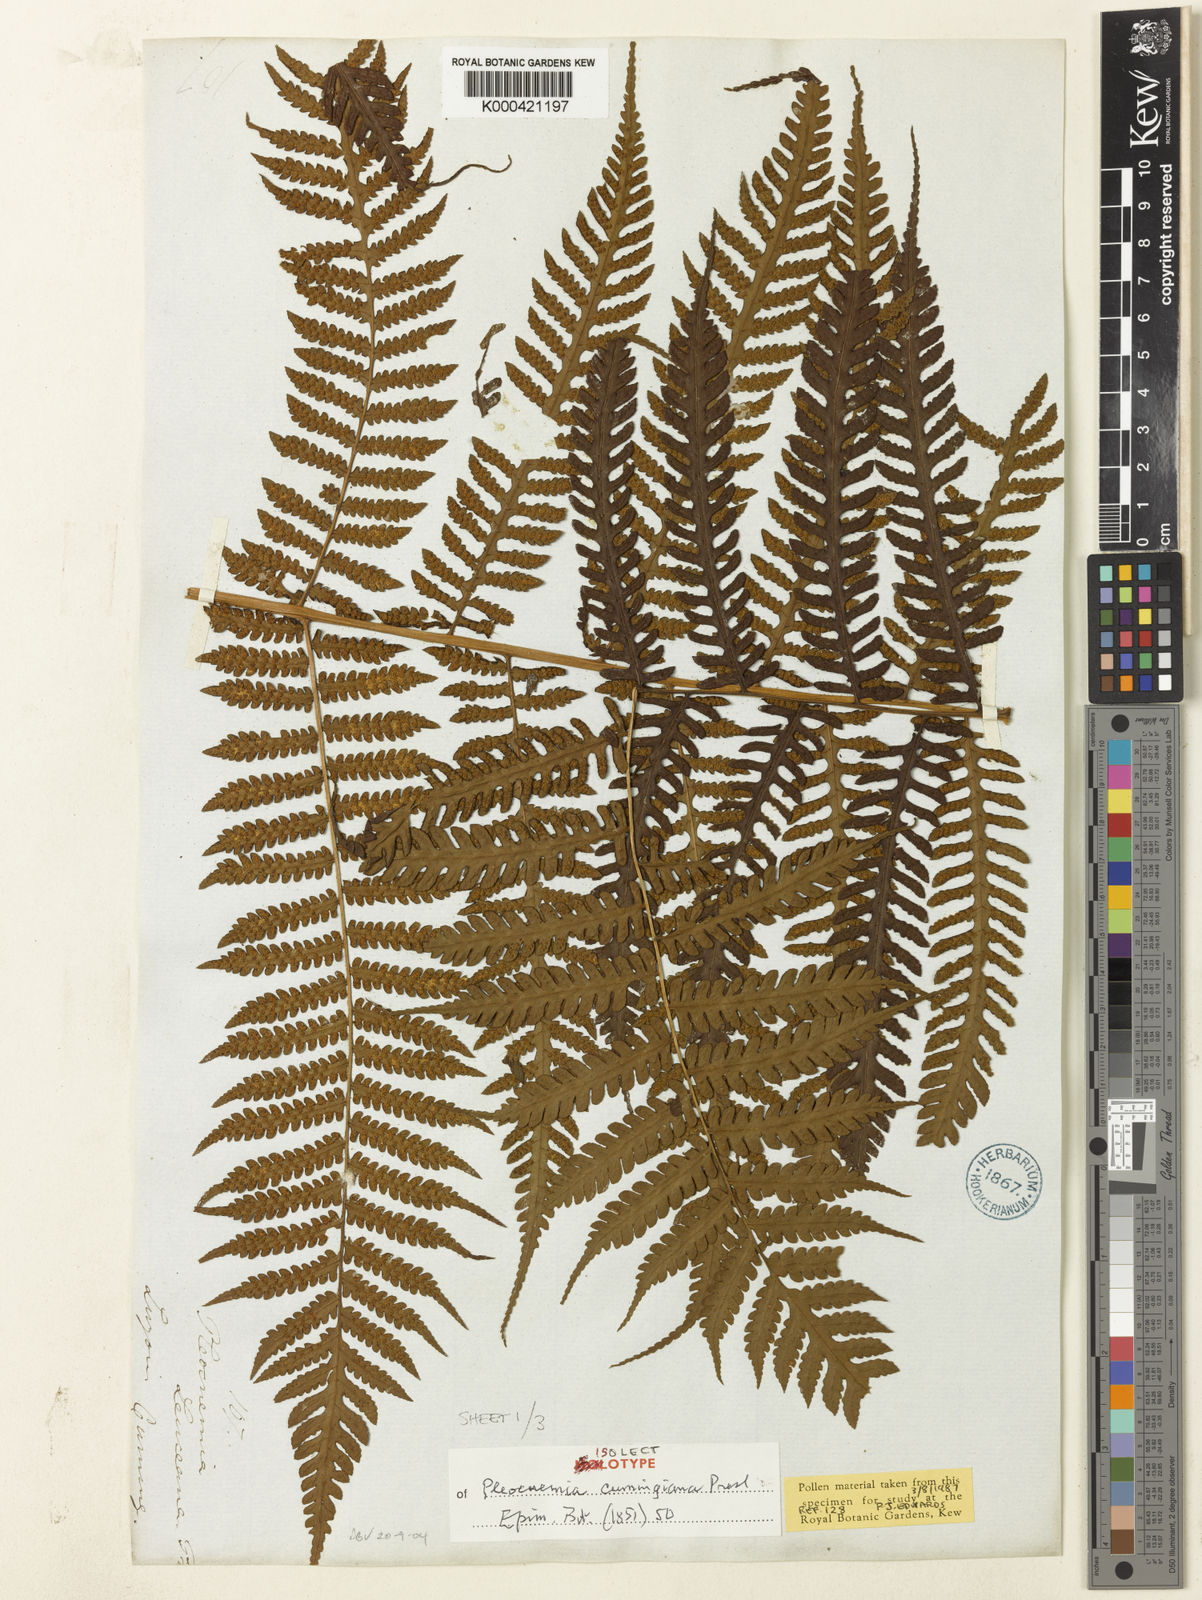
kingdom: Plantae
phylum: Tracheophyta
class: Polypodiopsida
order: Polypodiales
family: Dryopteridaceae
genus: Pleocnemia
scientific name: Pleocnemia cumingiana
